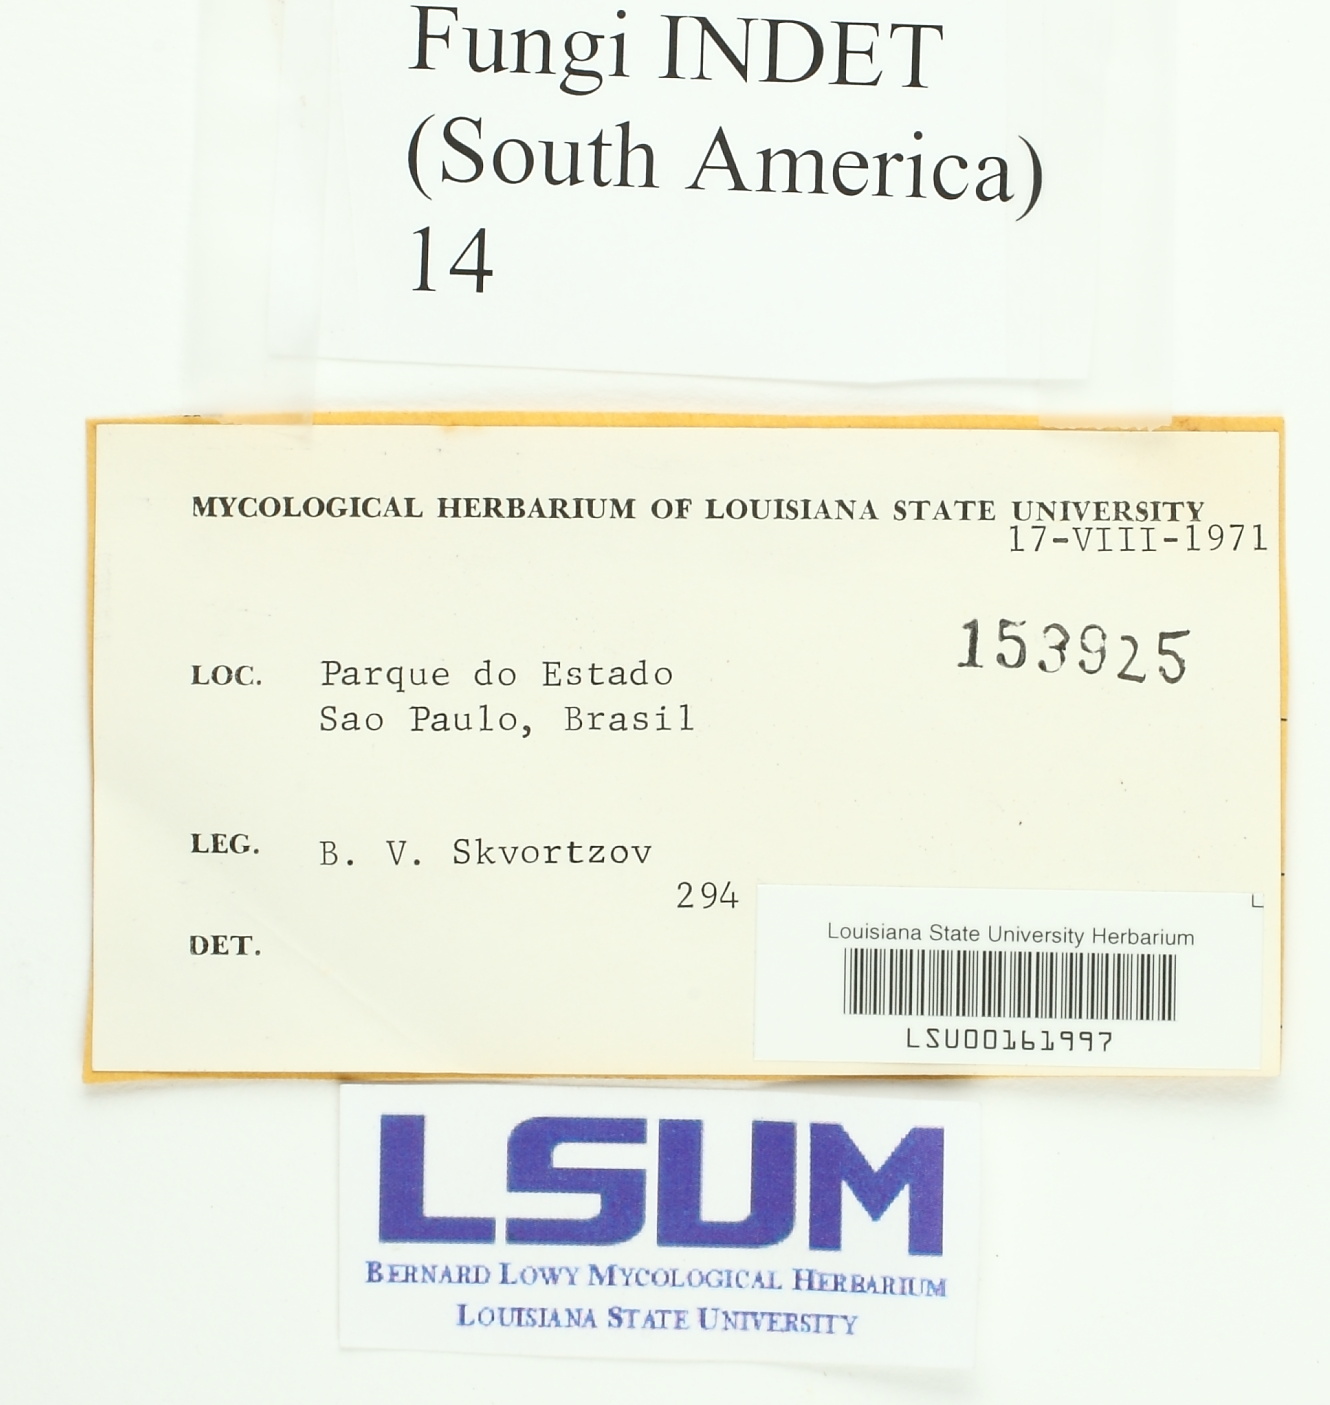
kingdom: Fungi
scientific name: Fungi
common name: Fungi
